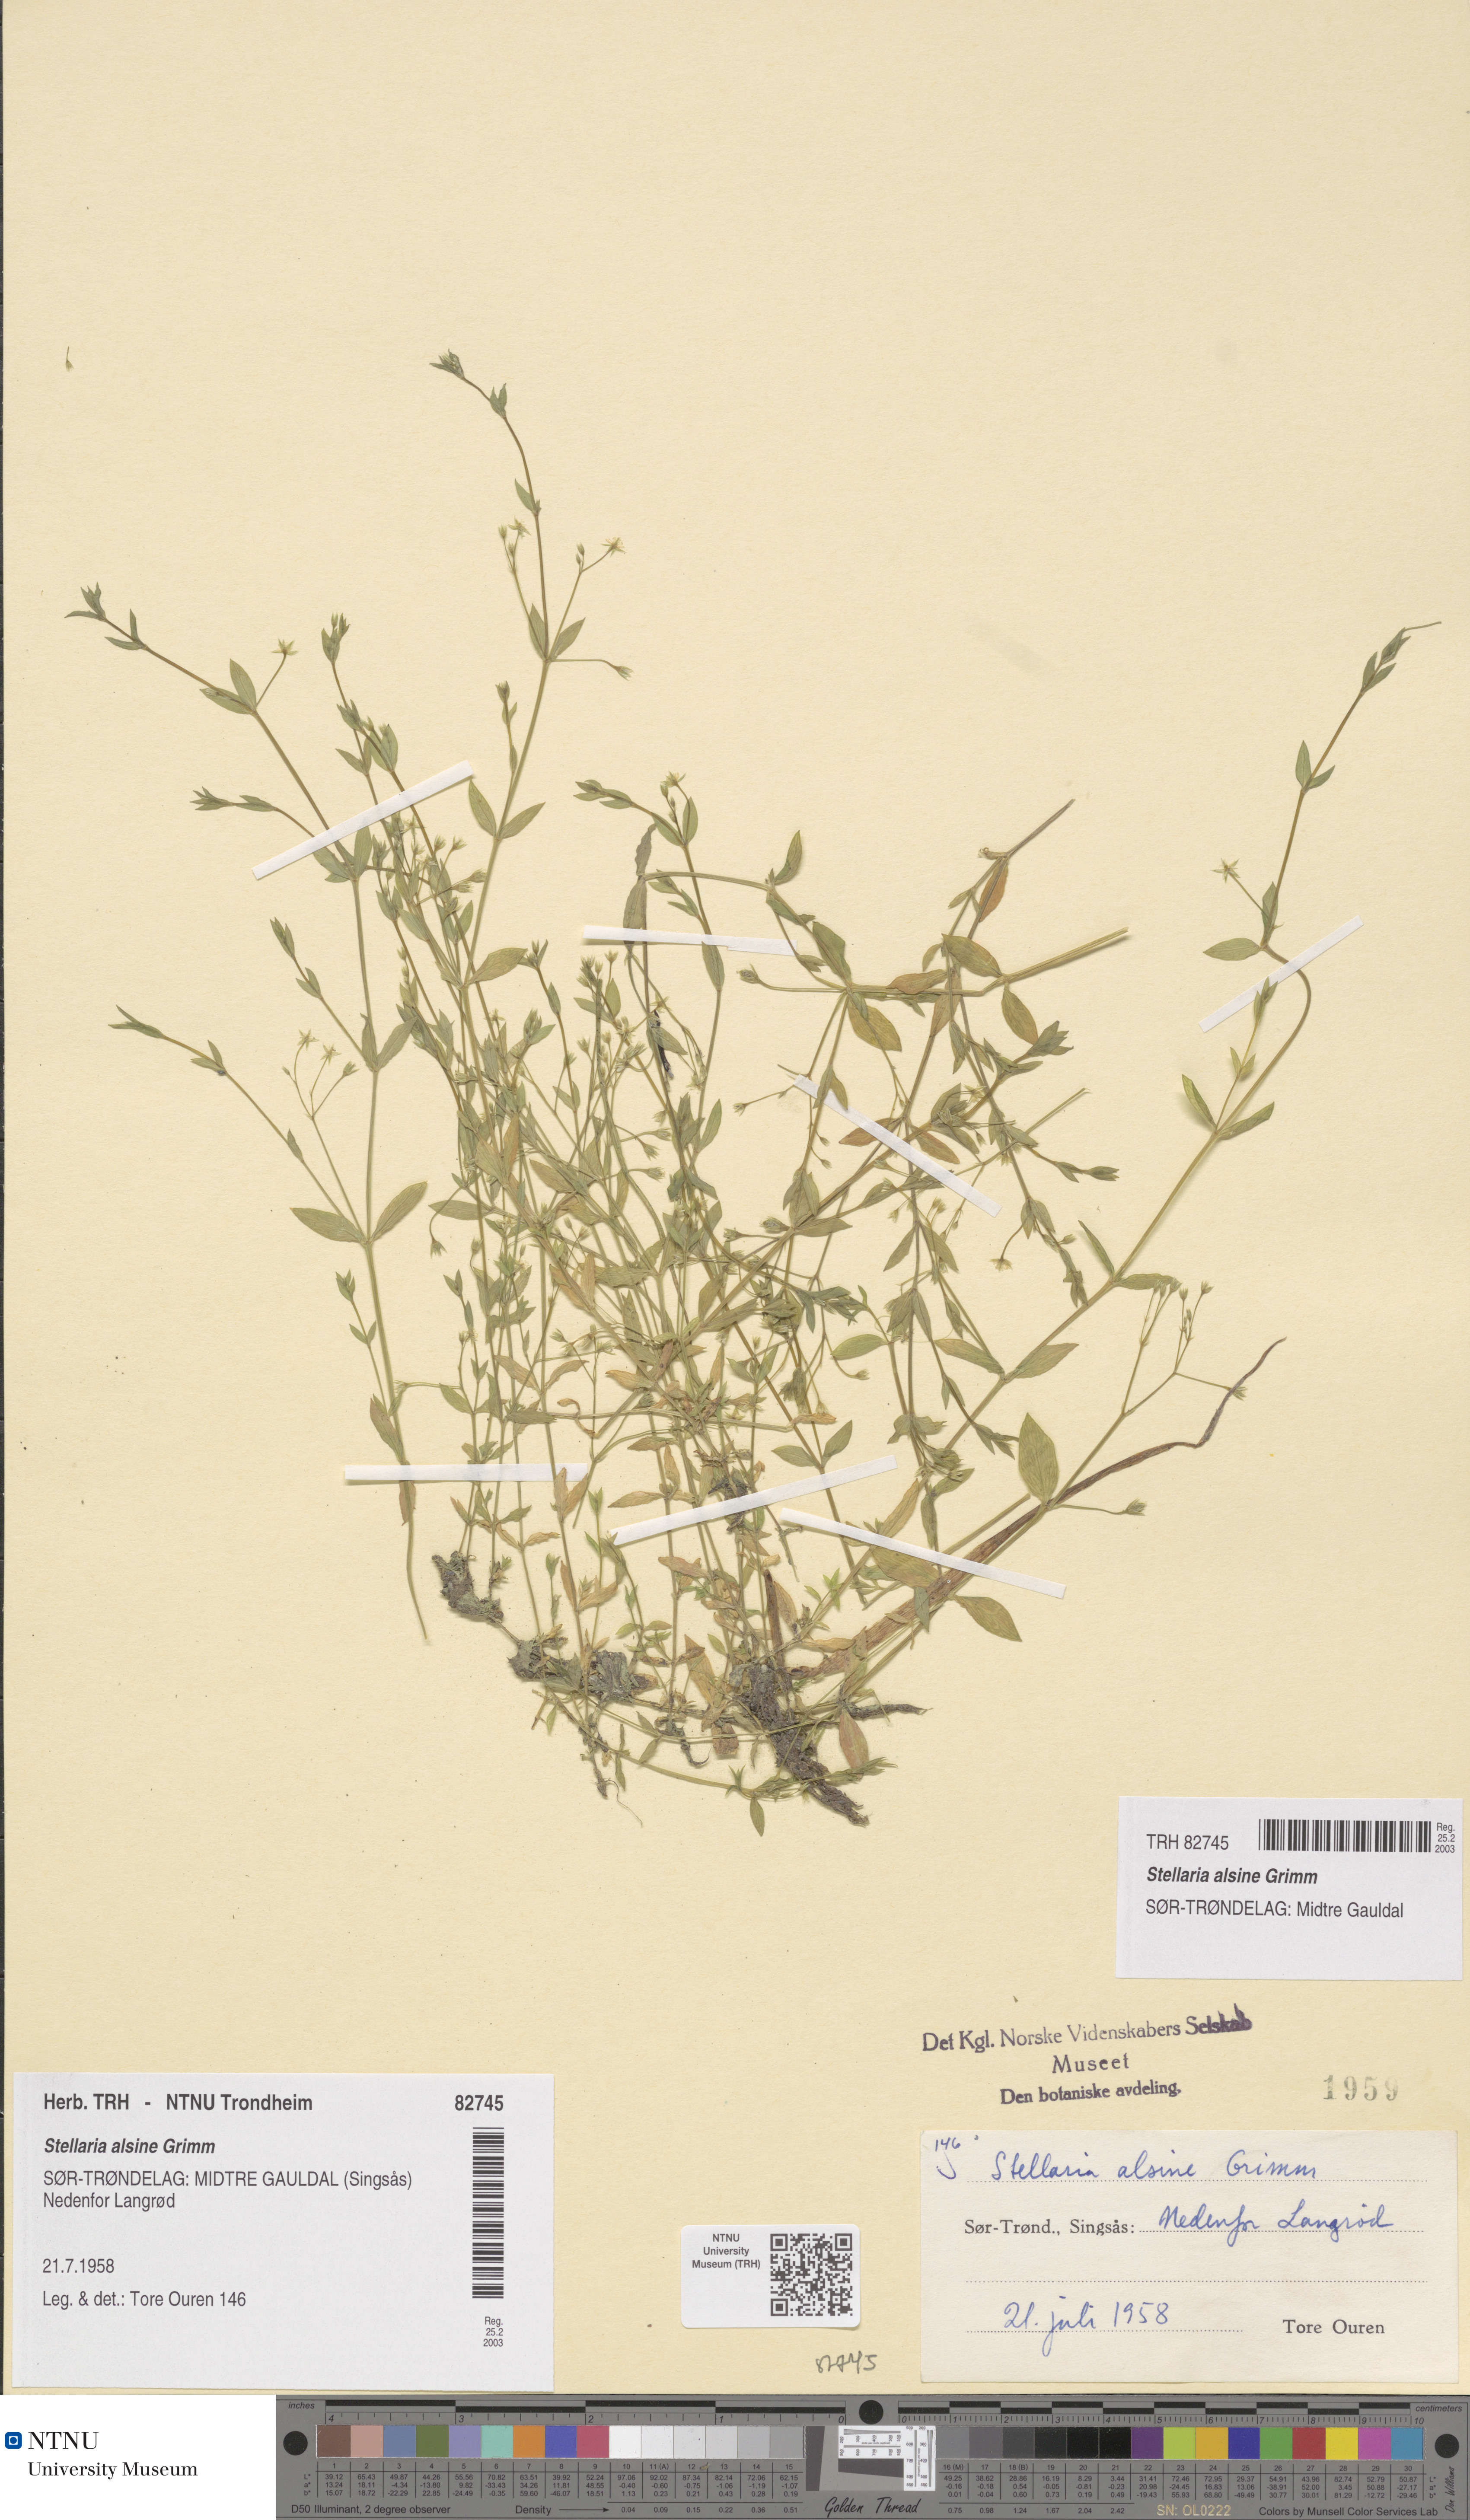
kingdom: Plantae
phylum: Tracheophyta
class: Magnoliopsida
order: Caryophyllales
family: Caryophyllaceae
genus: Stellaria
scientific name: Stellaria alsine
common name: Bog stitchwort
